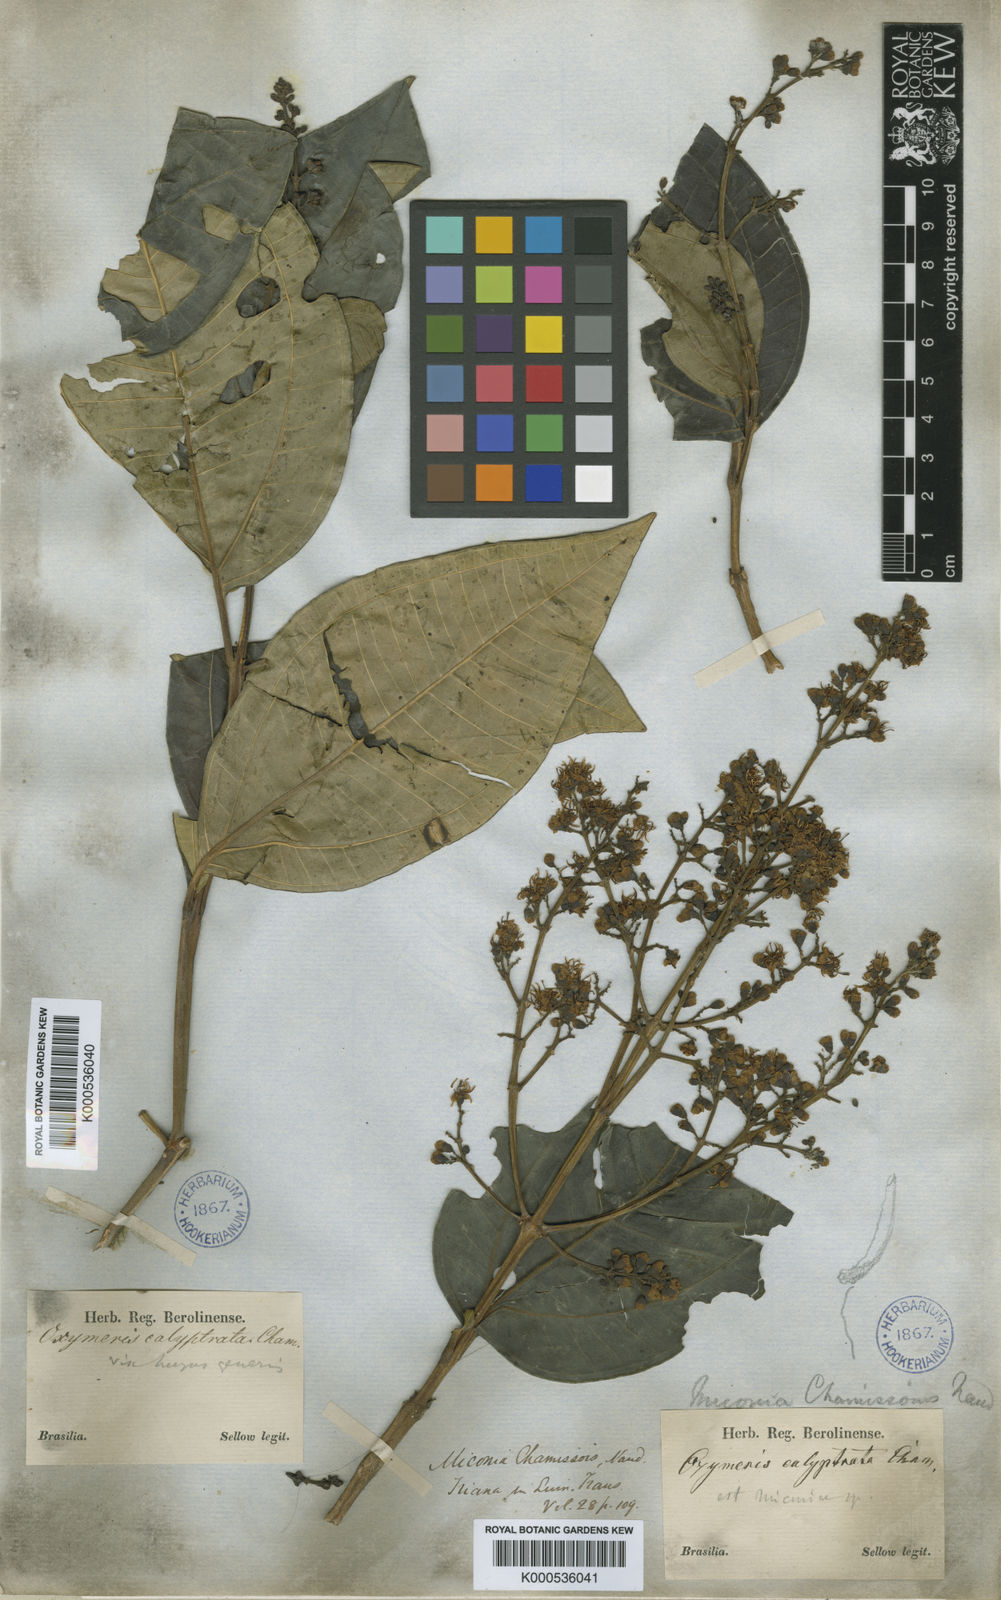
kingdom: Plantae
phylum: Tracheophyta
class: Magnoliopsida
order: Myrtales
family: Melastomataceae
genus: Miconia
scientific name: Miconia chamissois
